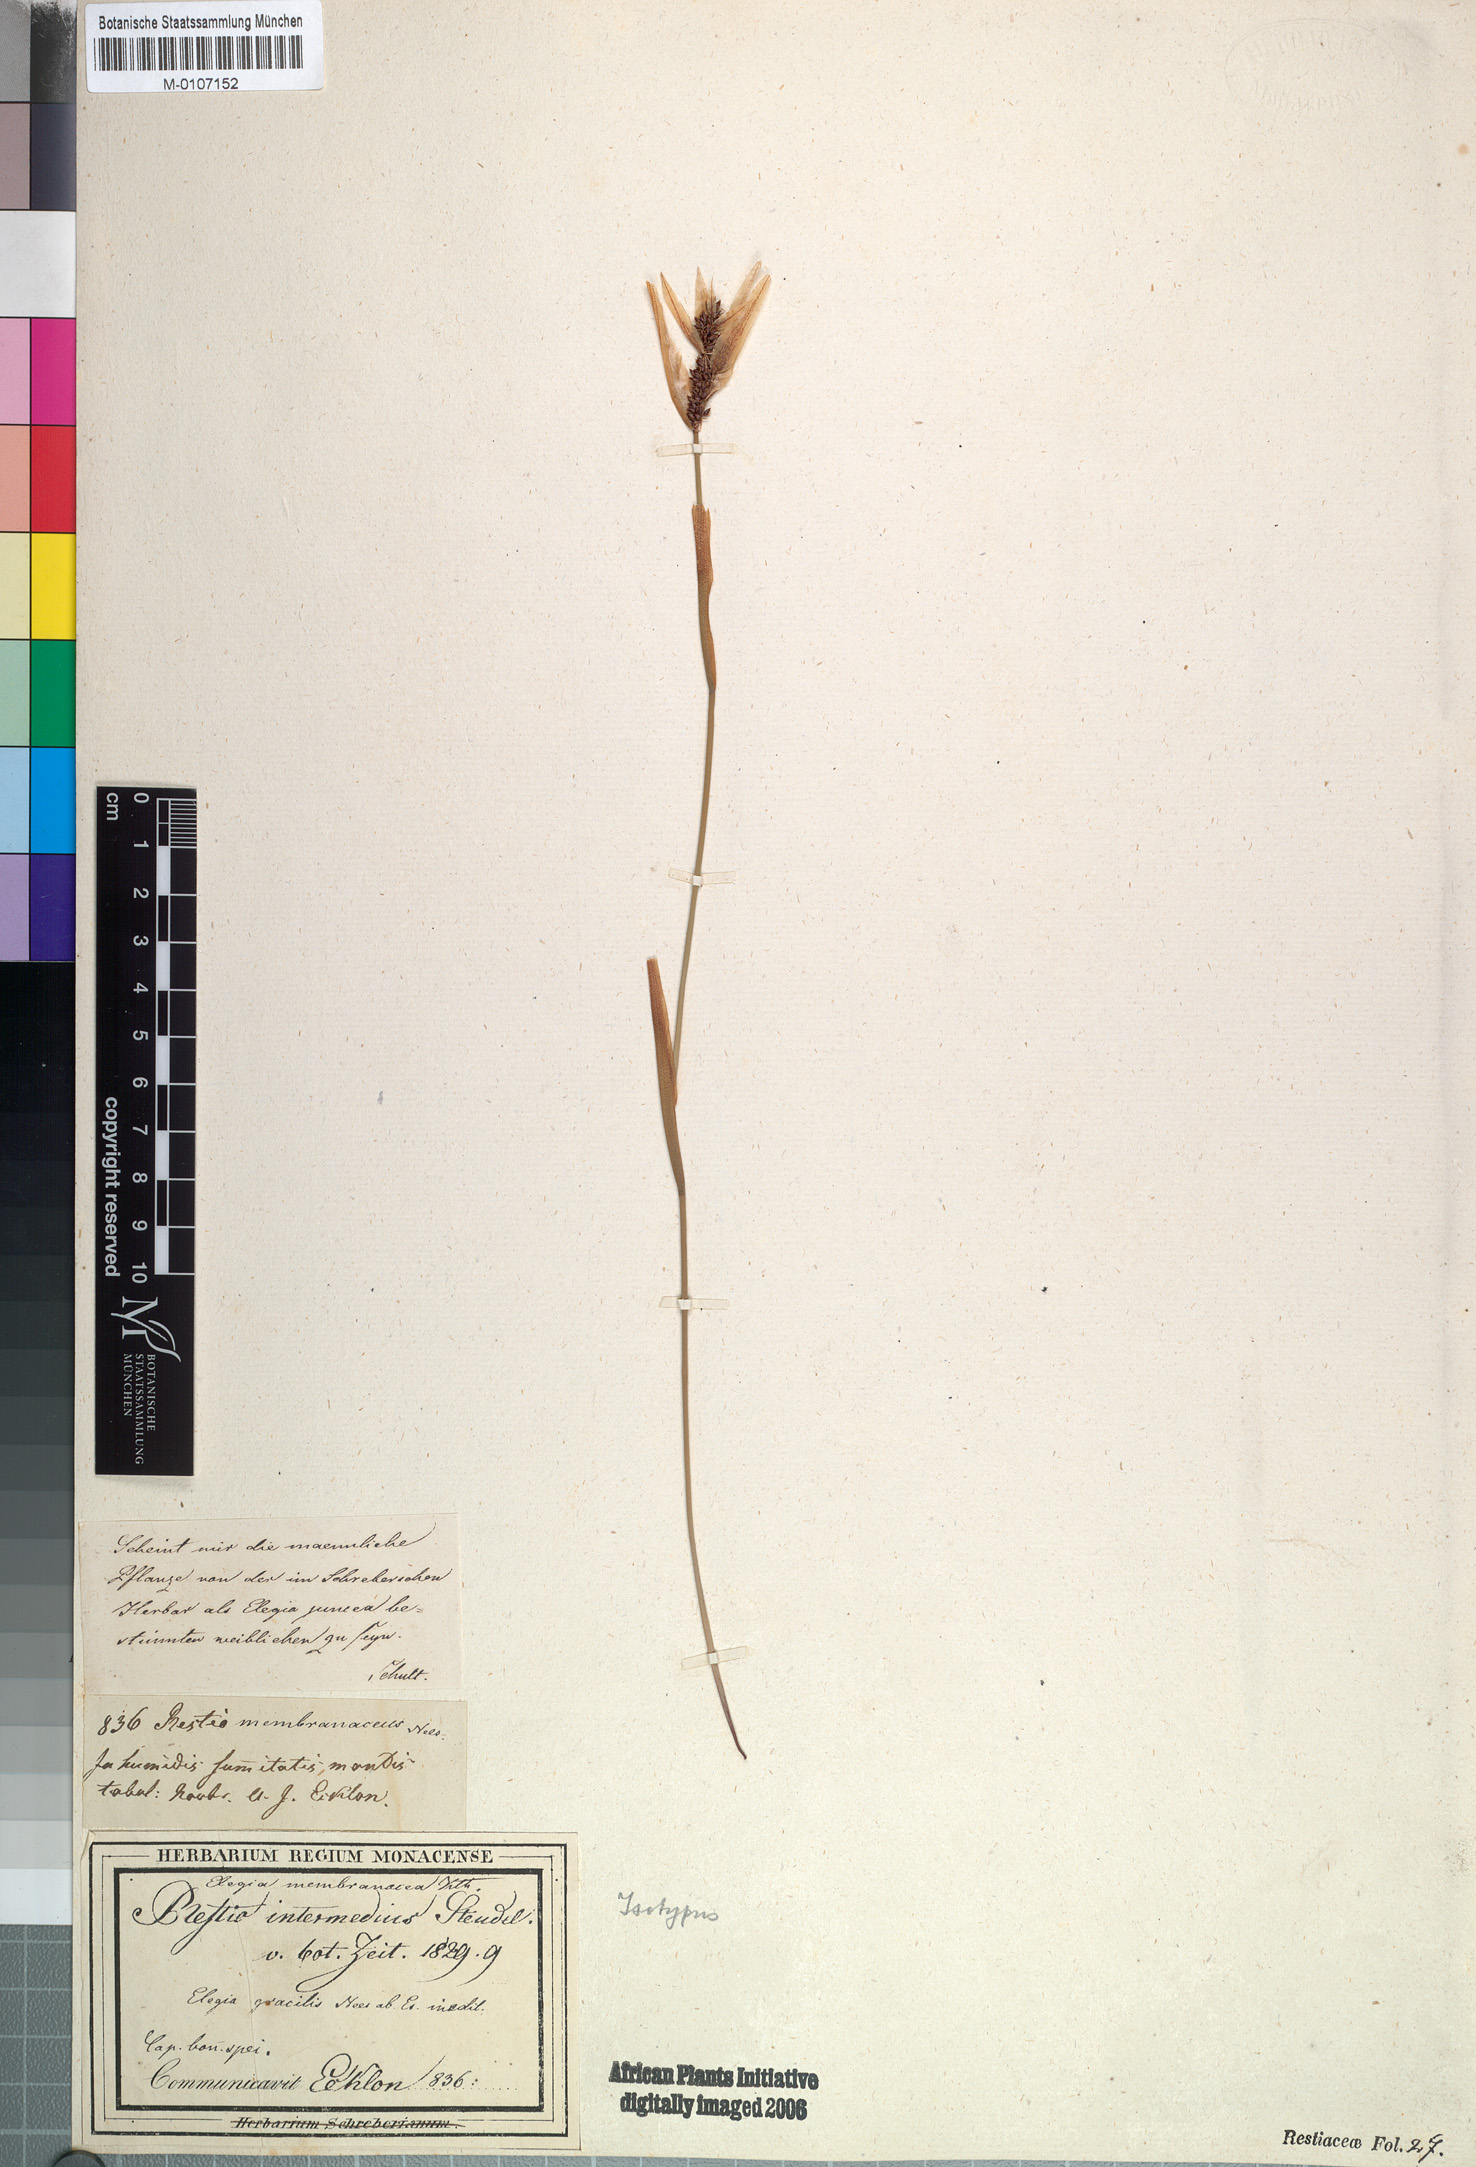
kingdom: Plantae
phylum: Tracheophyta
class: Liliopsida
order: Poales
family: Restionaceae
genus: Elegia
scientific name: Elegia filacea
